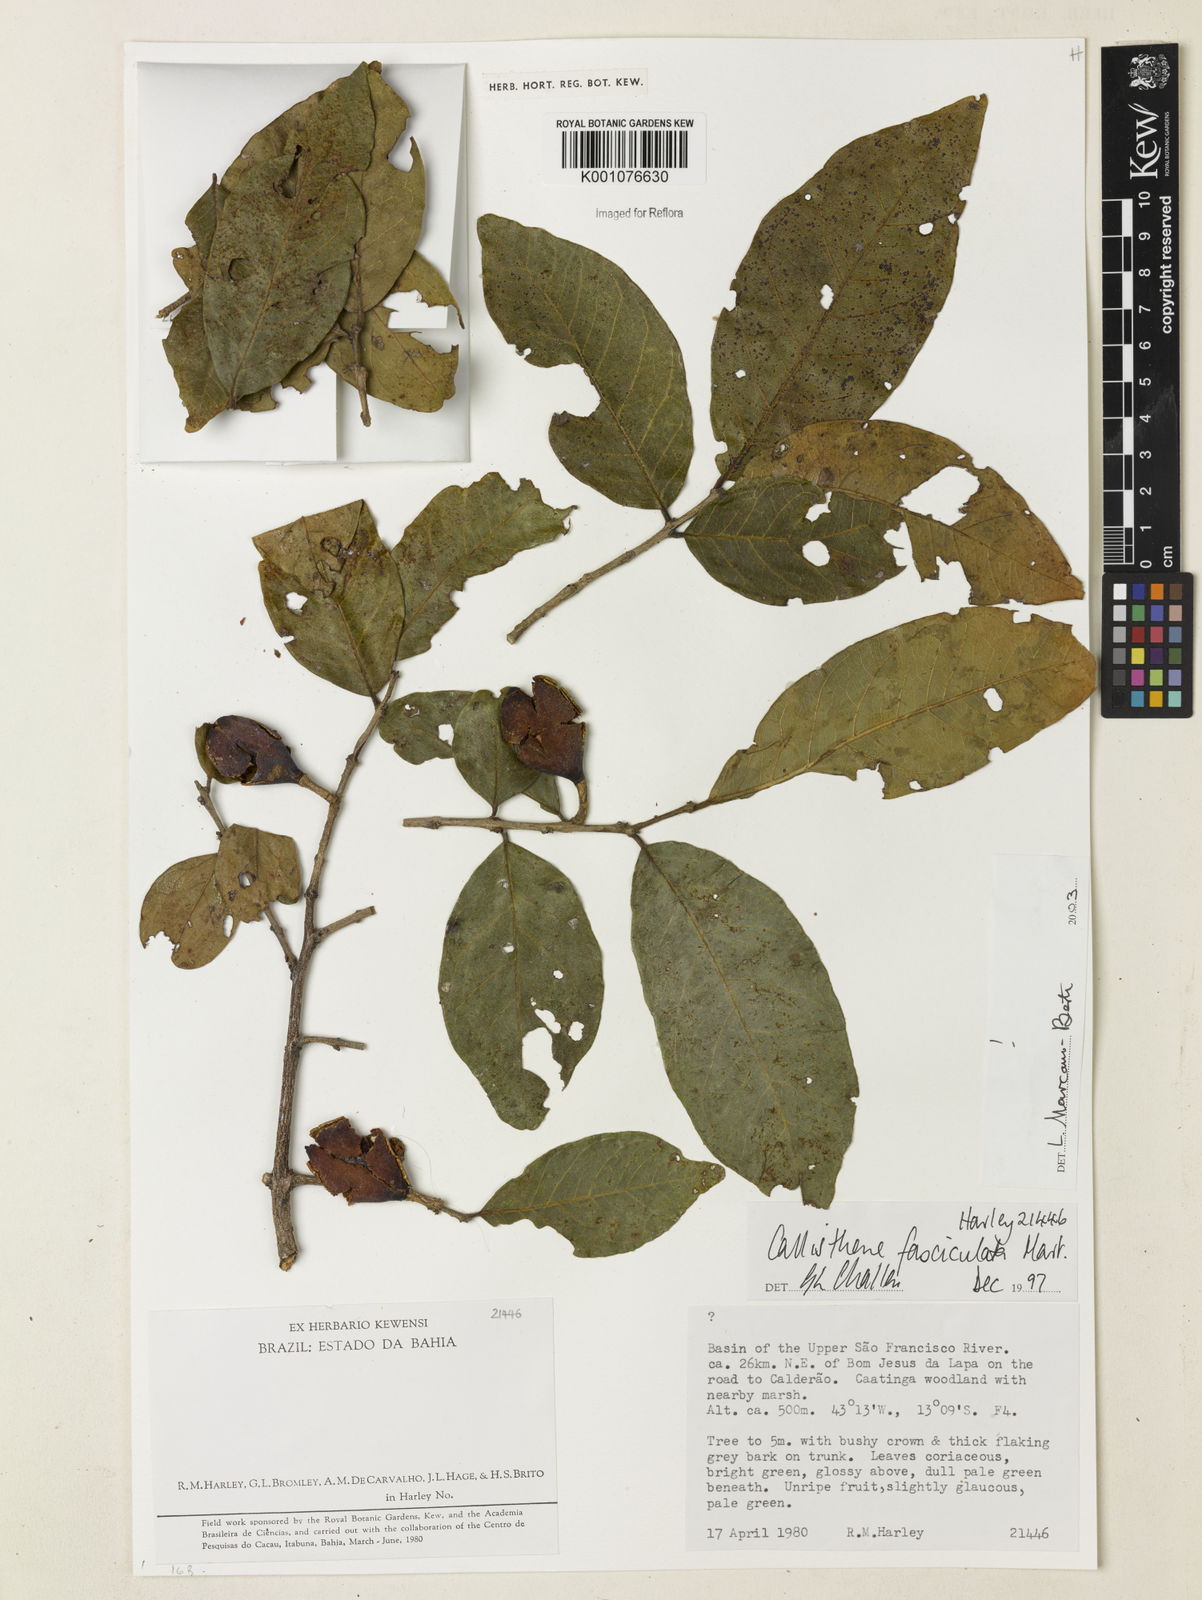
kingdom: Plantae
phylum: Tracheophyta
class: Magnoliopsida
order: Myrtales
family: Vochysiaceae
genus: Callisthene
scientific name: Callisthene fasciculata
